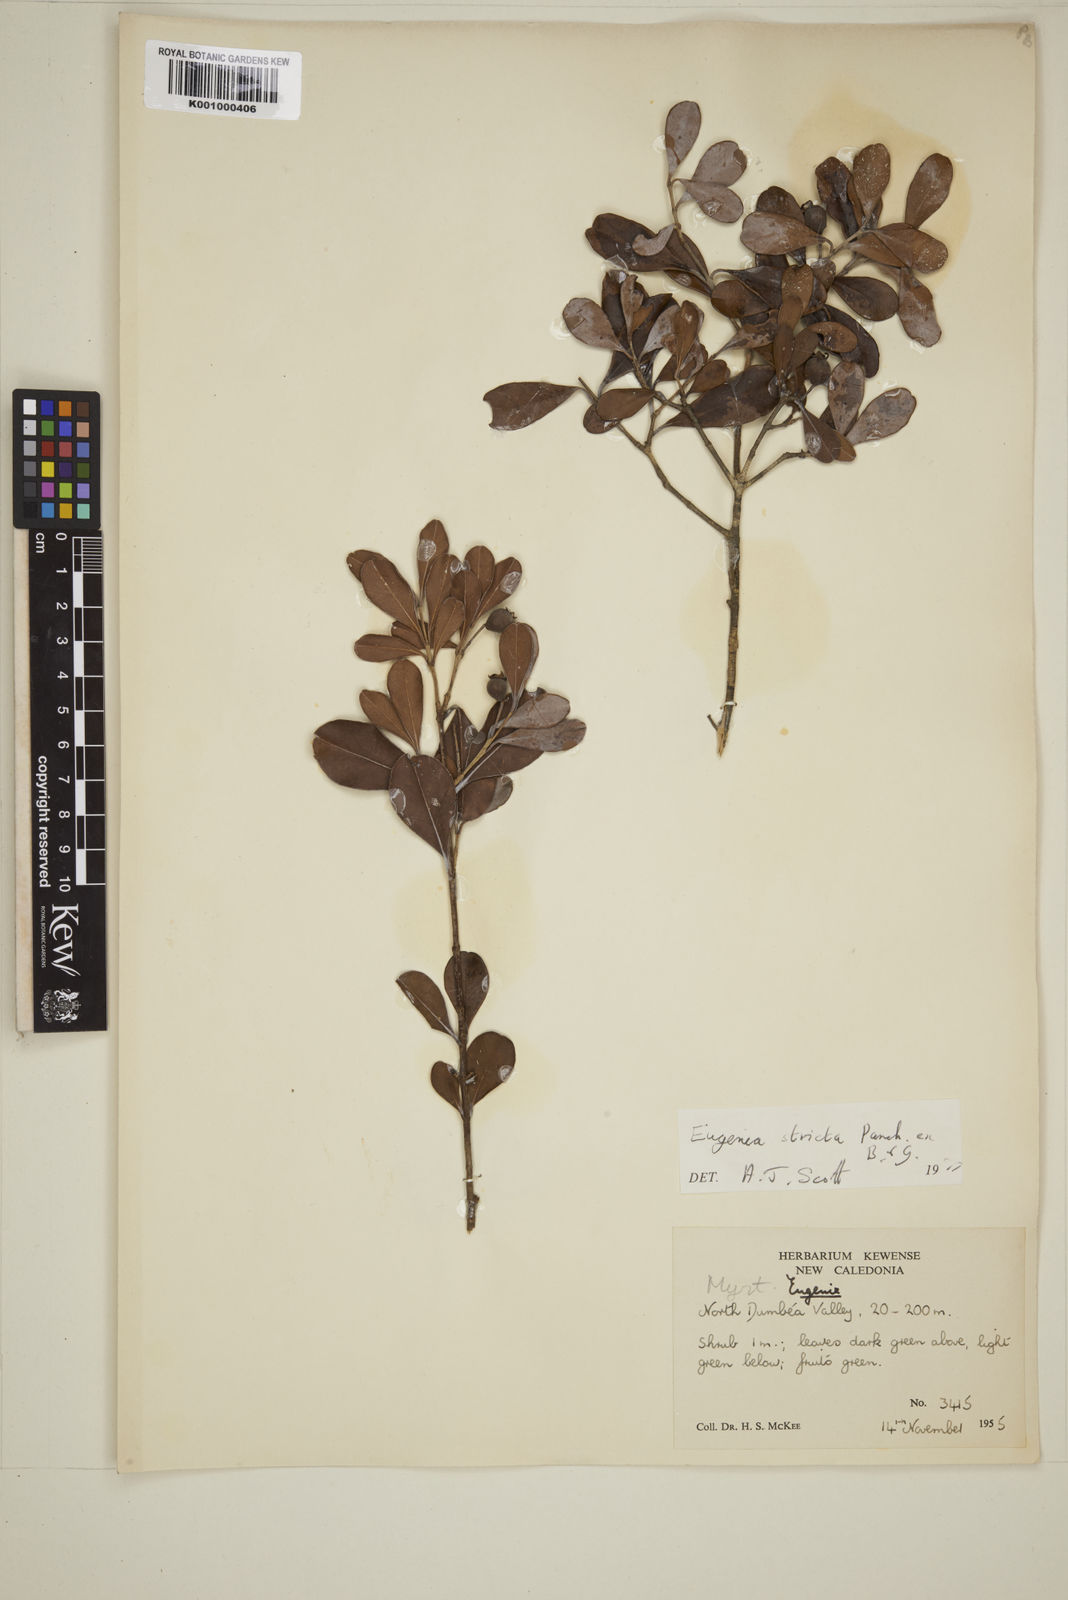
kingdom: Plantae
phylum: Tracheophyta
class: Magnoliopsida
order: Myrtales
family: Myrtaceae
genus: Austromyrtus
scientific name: Austromyrtus stricta
